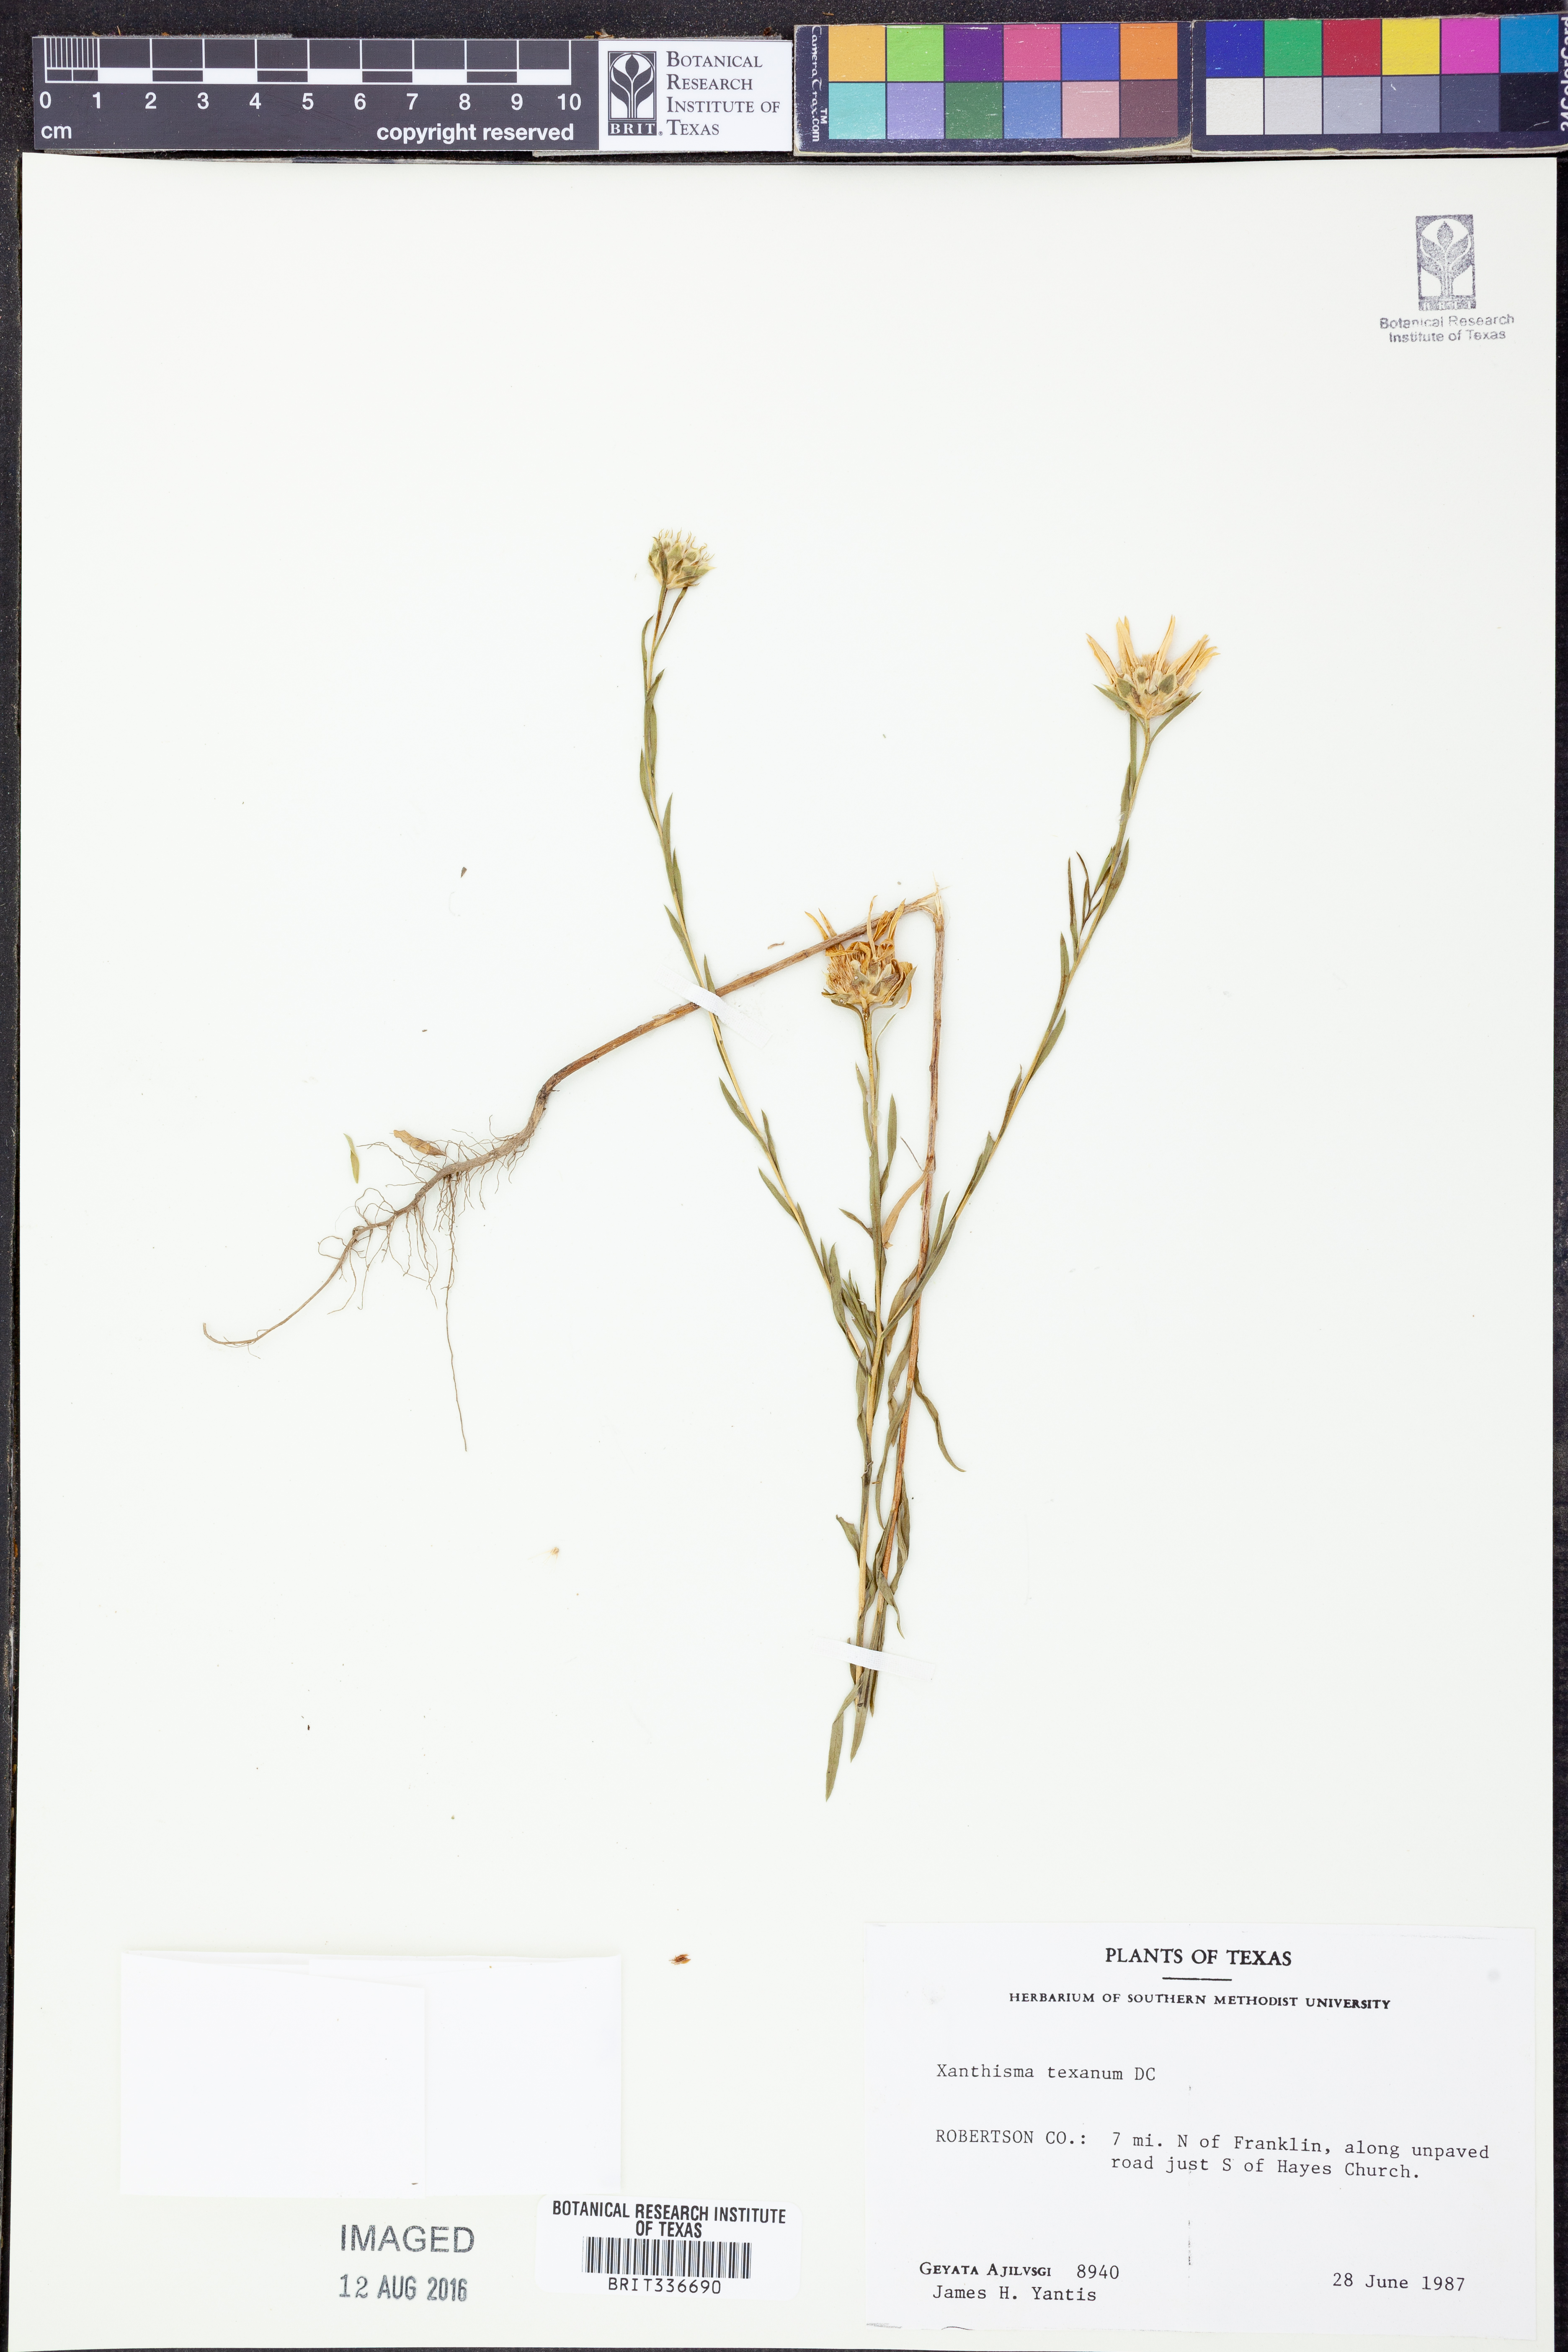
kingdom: Plantae
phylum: Tracheophyta
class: Magnoliopsida
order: Asterales
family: Asteraceae
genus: Xanthisma
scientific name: Xanthisma texanum
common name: Texas sleepy daisy
